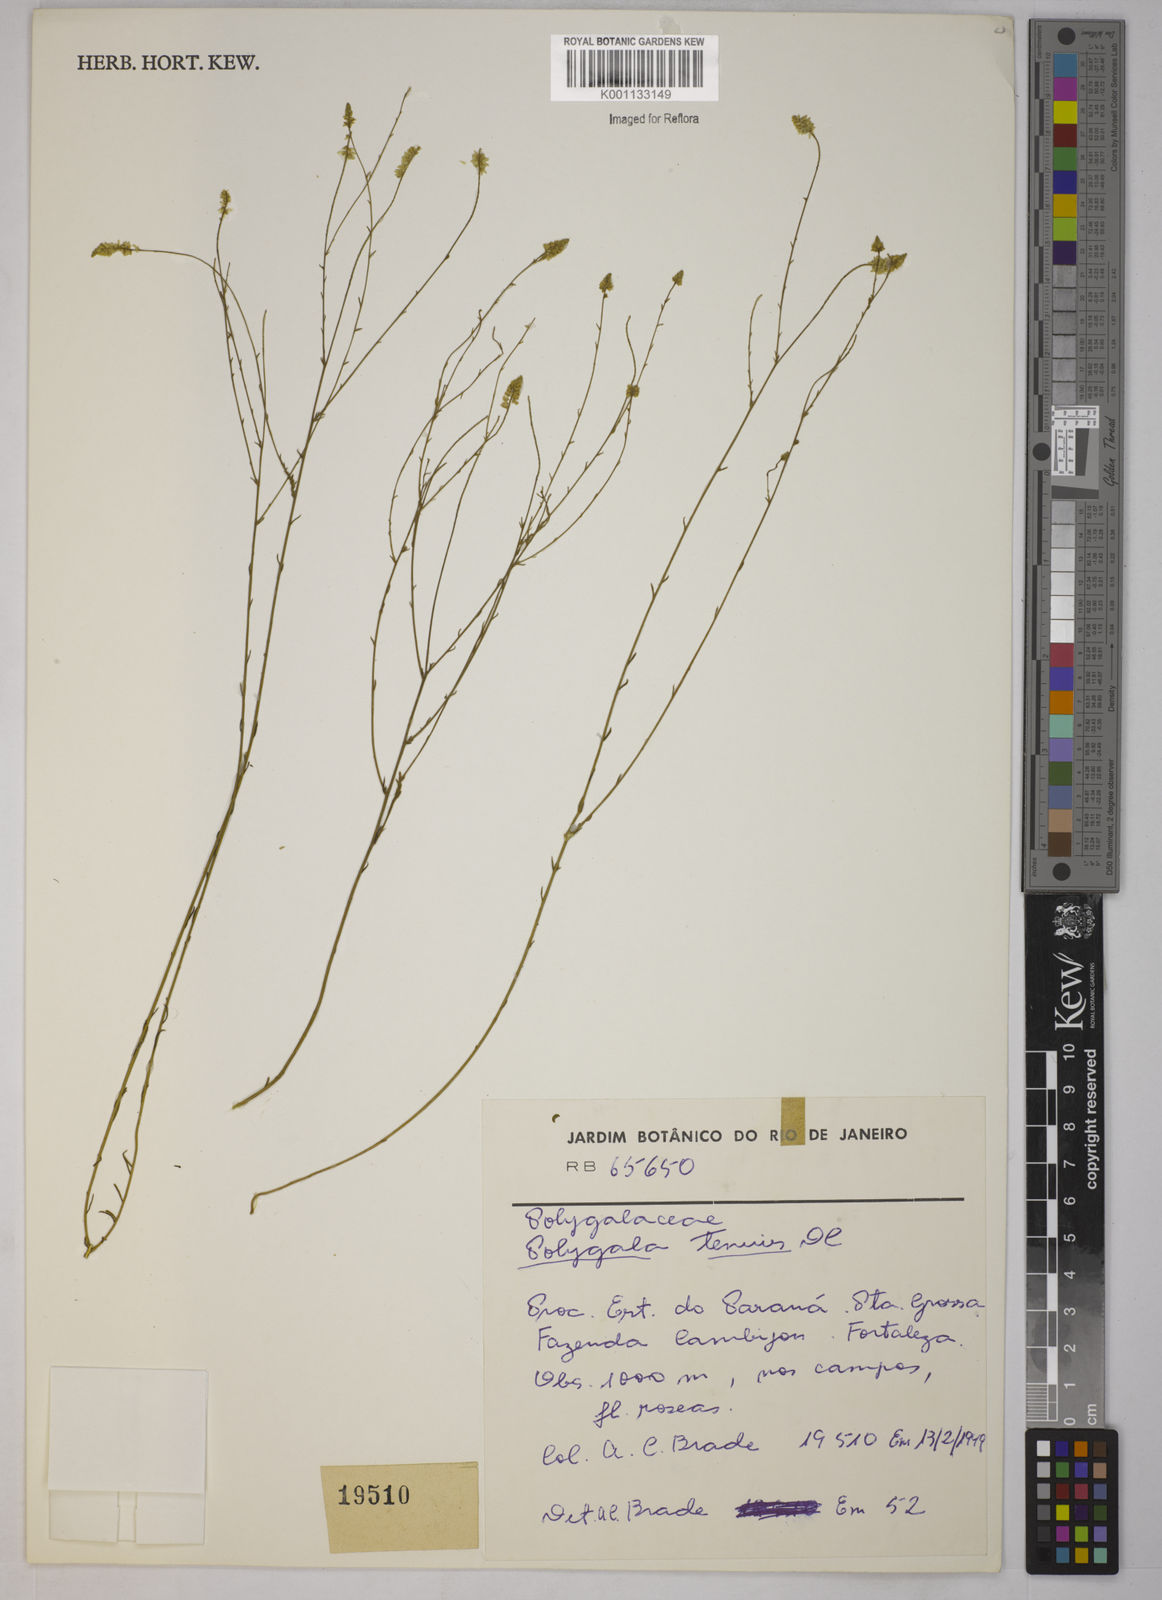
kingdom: Plantae
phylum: Tracheophyta
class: Magnoliopsida
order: Fabales
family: Polygalaceae
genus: Polygala
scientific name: Polygala tenuis
